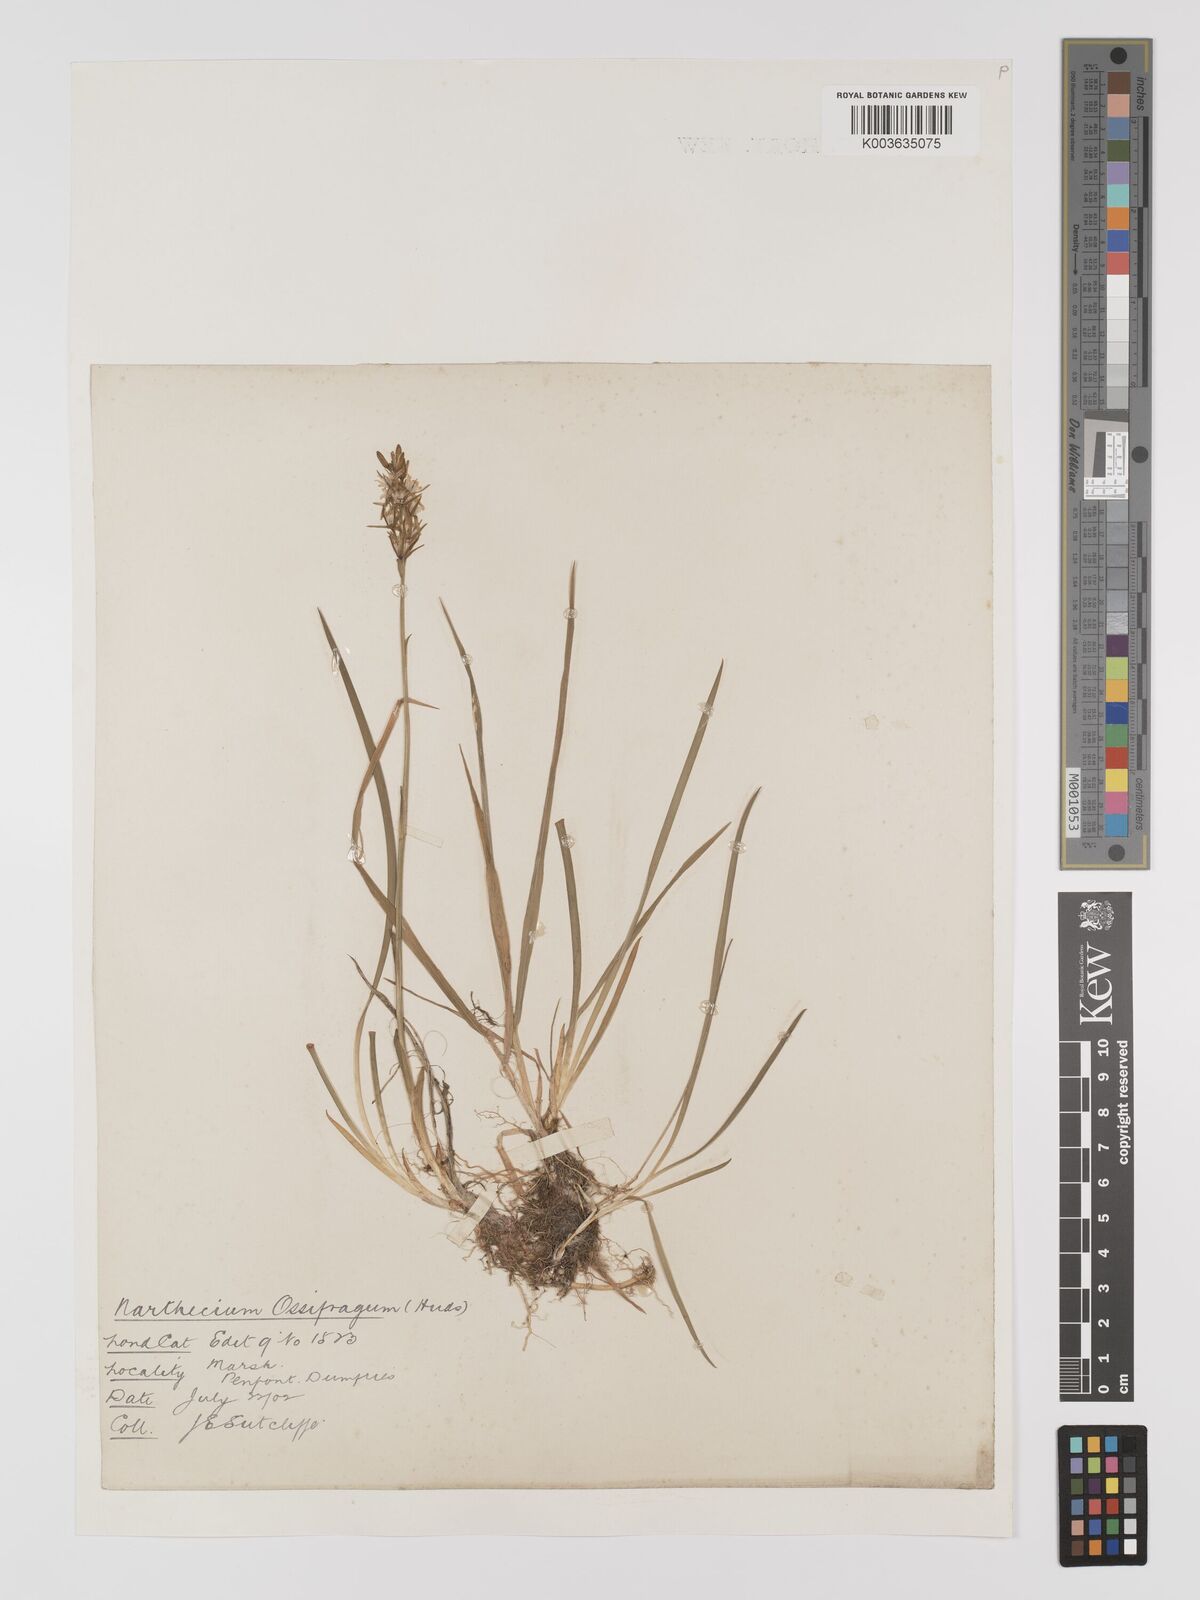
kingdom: Plantae
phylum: Tracheophyta
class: Liliopsida
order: Dioscoreales
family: Nartheciaceae
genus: Narthecium
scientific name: Narthecium
